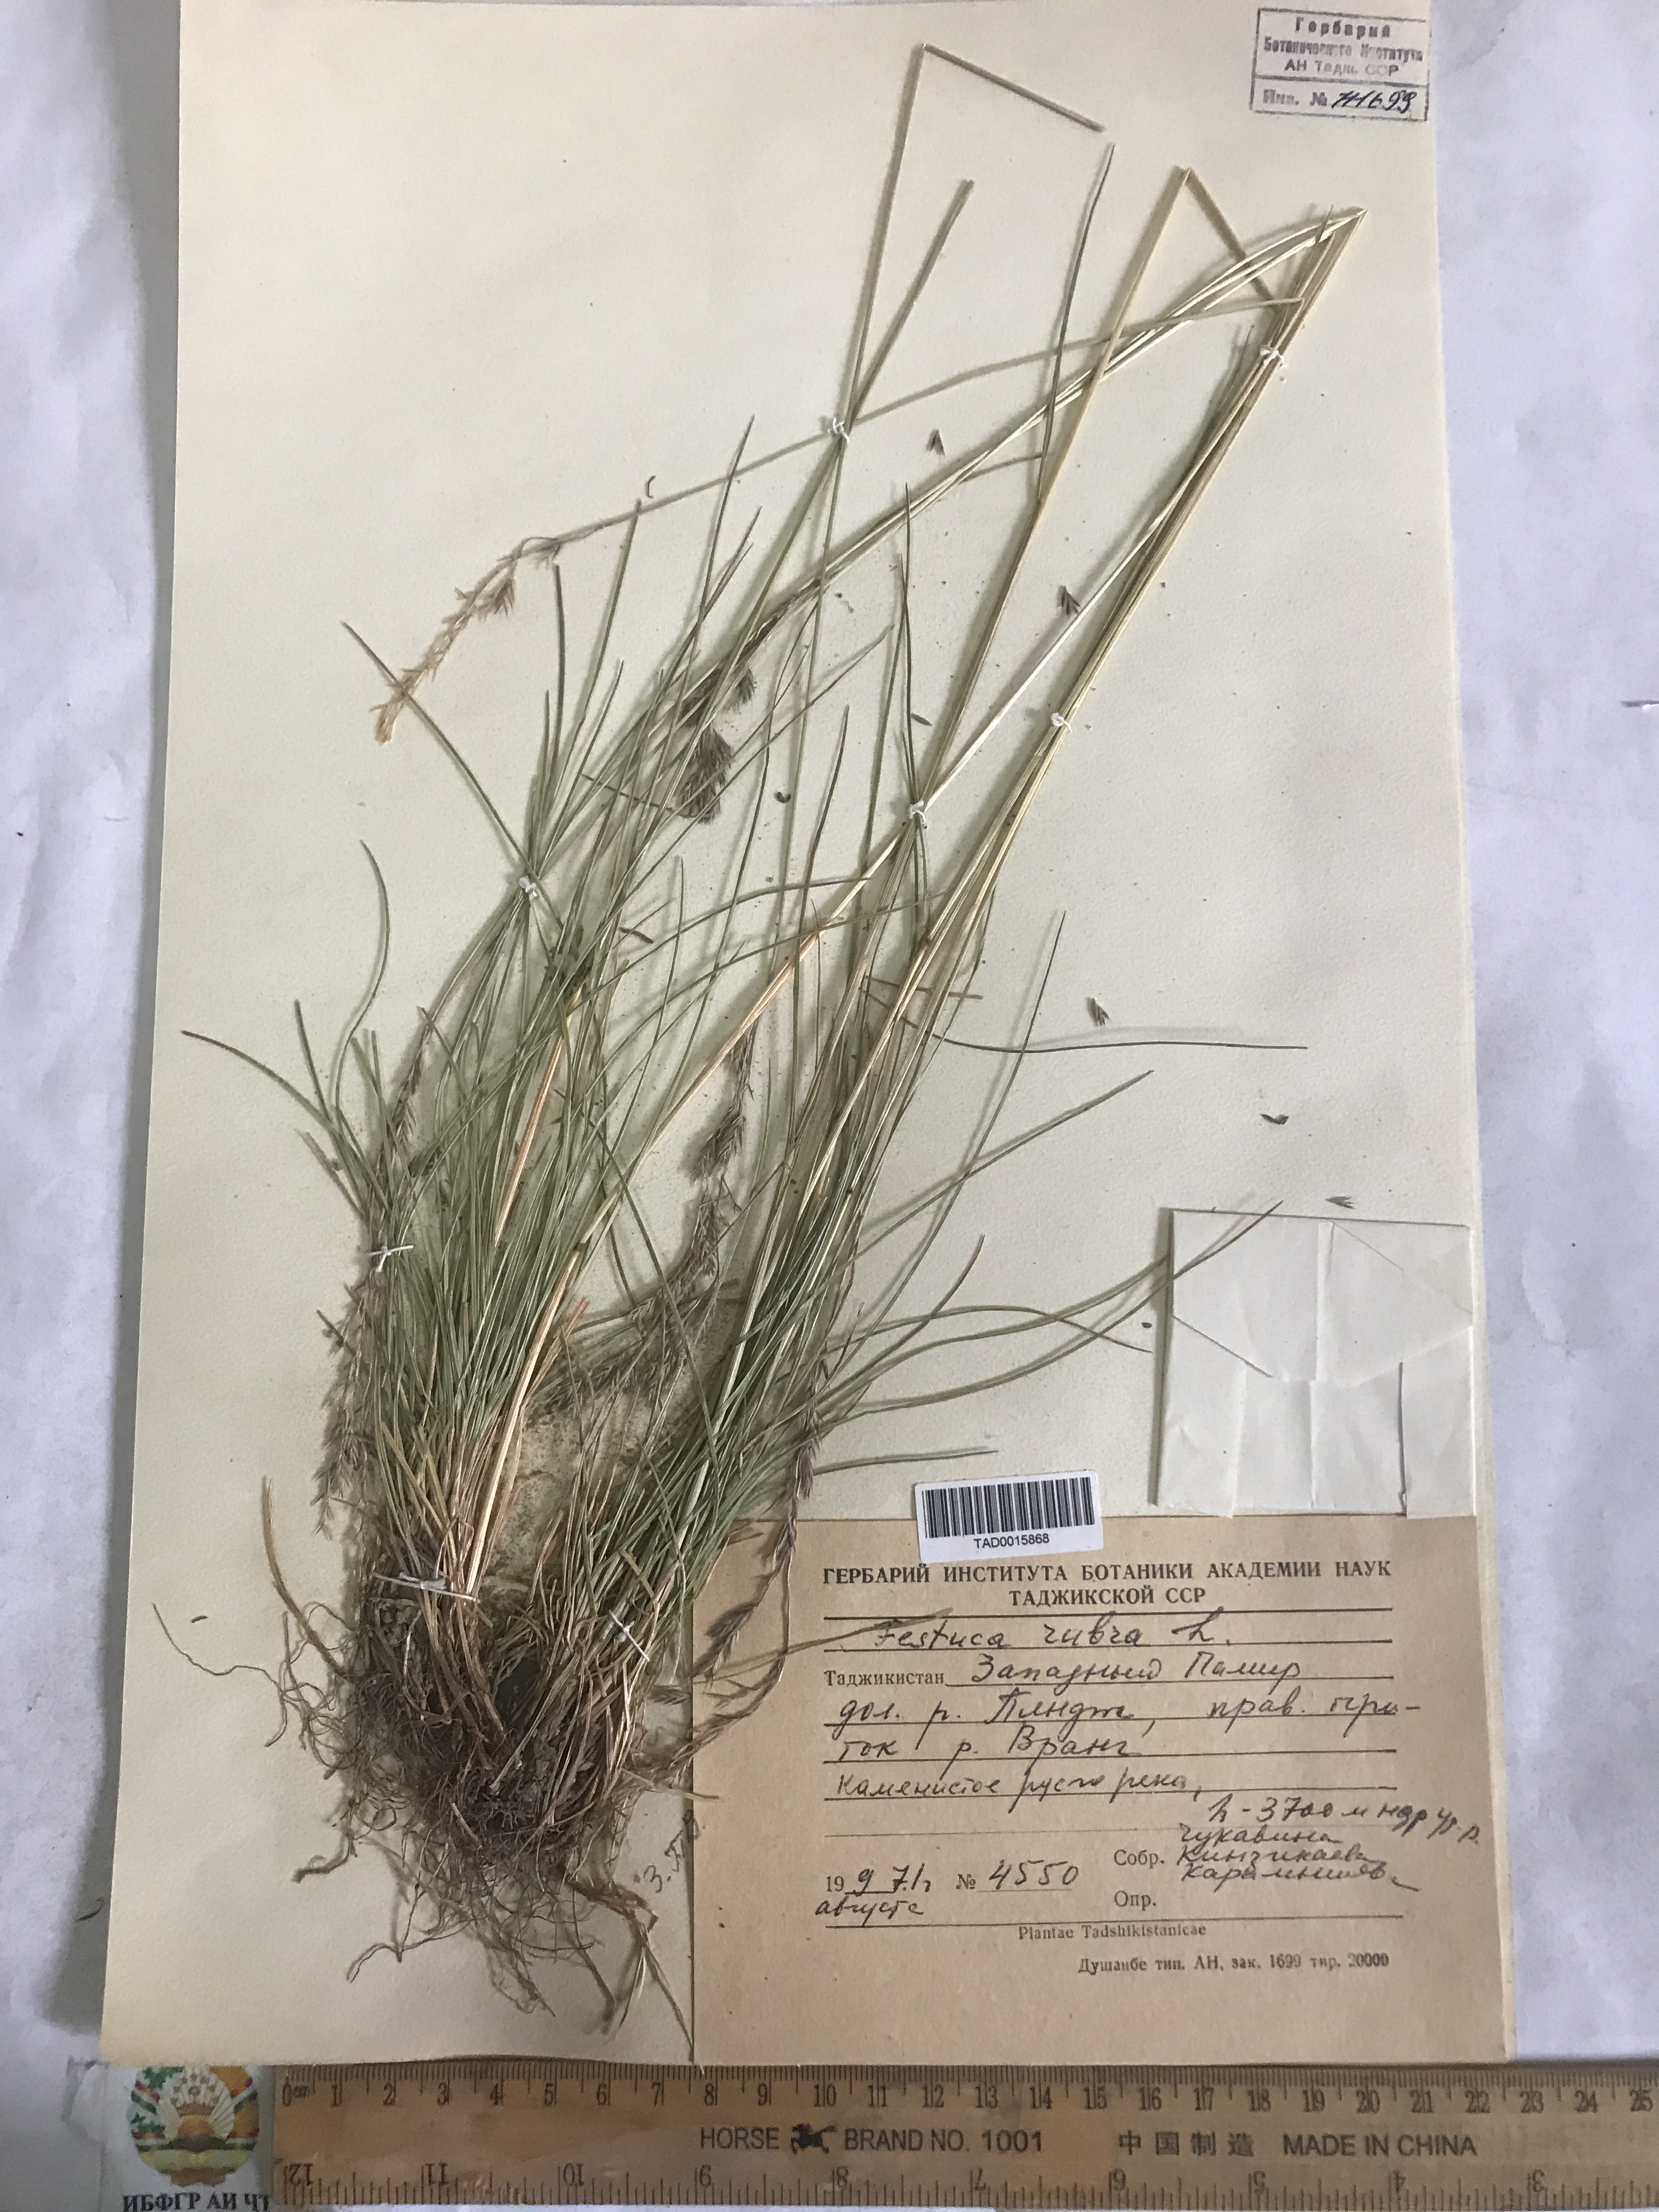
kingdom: Plantae
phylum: Tracheophyta
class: Liliopsida
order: Poales
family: Poaceae
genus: Festuca
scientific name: Festuca rubra
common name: Red fescue
